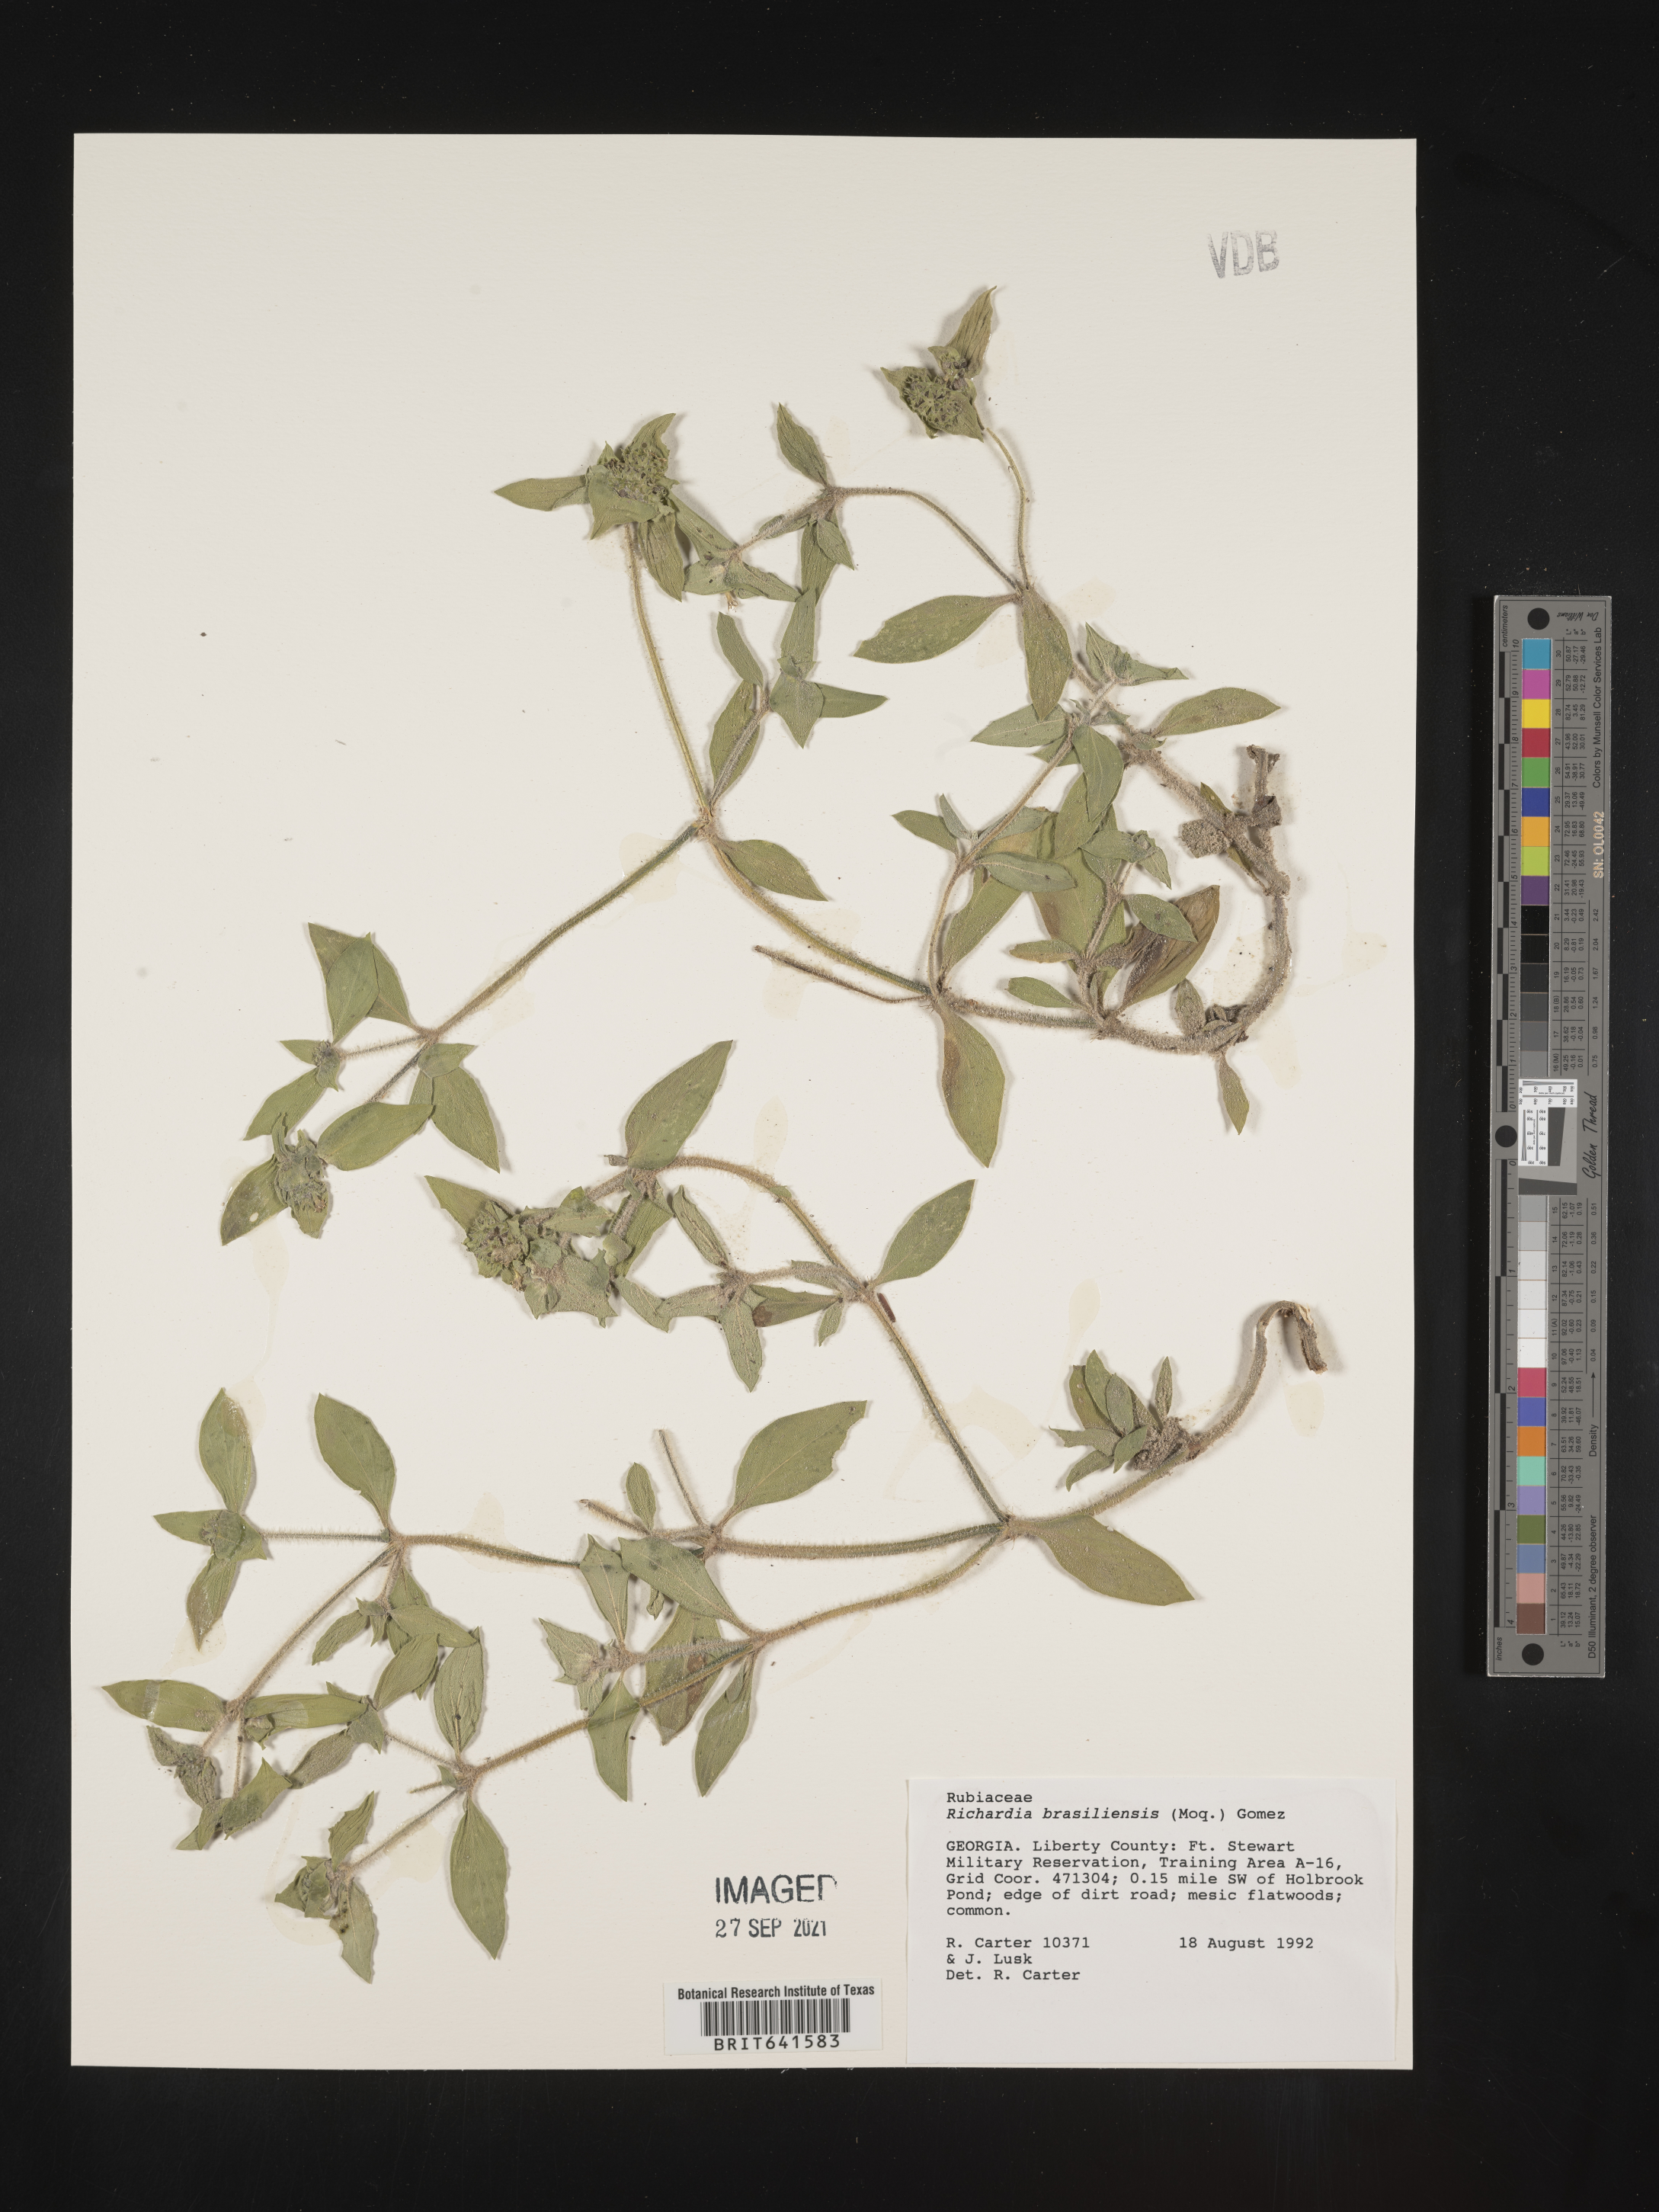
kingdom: Plantae
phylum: Tracheophyta
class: Magnoliopsida
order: Gentianales
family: Rubiaceae
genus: Richardia
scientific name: Richardia brasiliensis
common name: Tropical mexican clover
